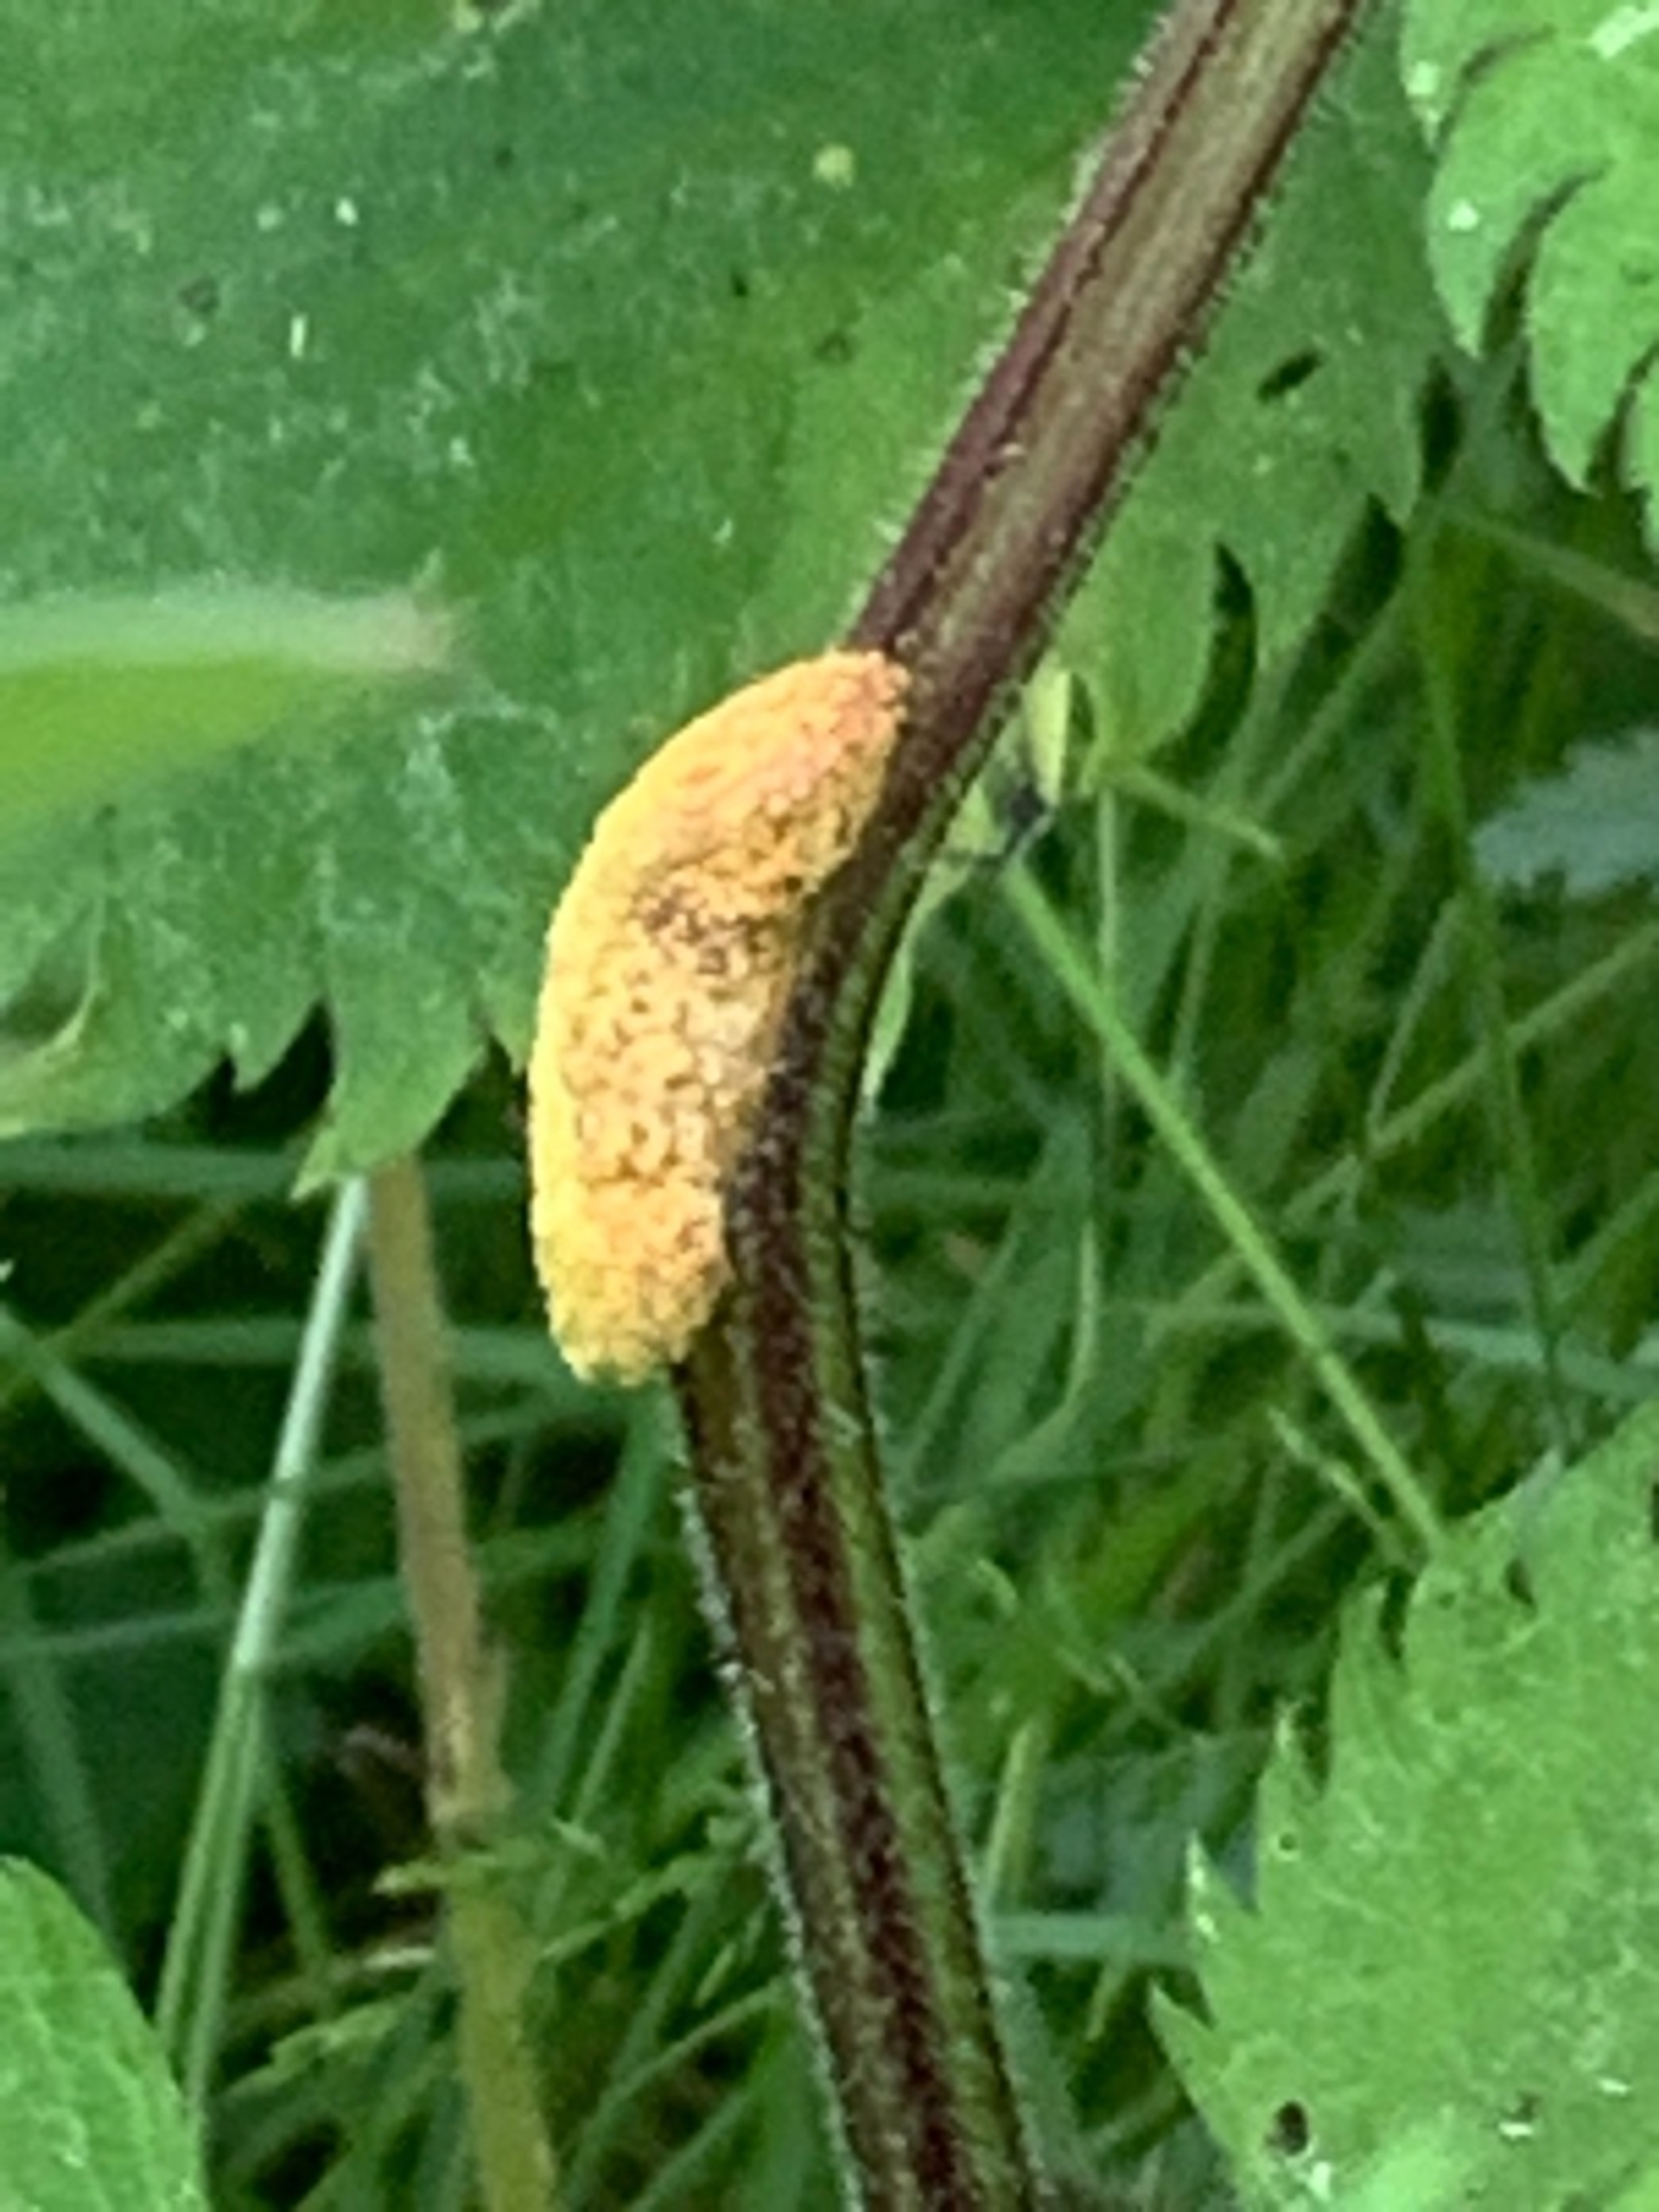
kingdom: Fungi
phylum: Basidiomycota
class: Pucciniomycetes
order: Pucciniales
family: Pucciniaceae
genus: Puccinia
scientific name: Puccinia urticata
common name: Nældegalle-tvecellerust
